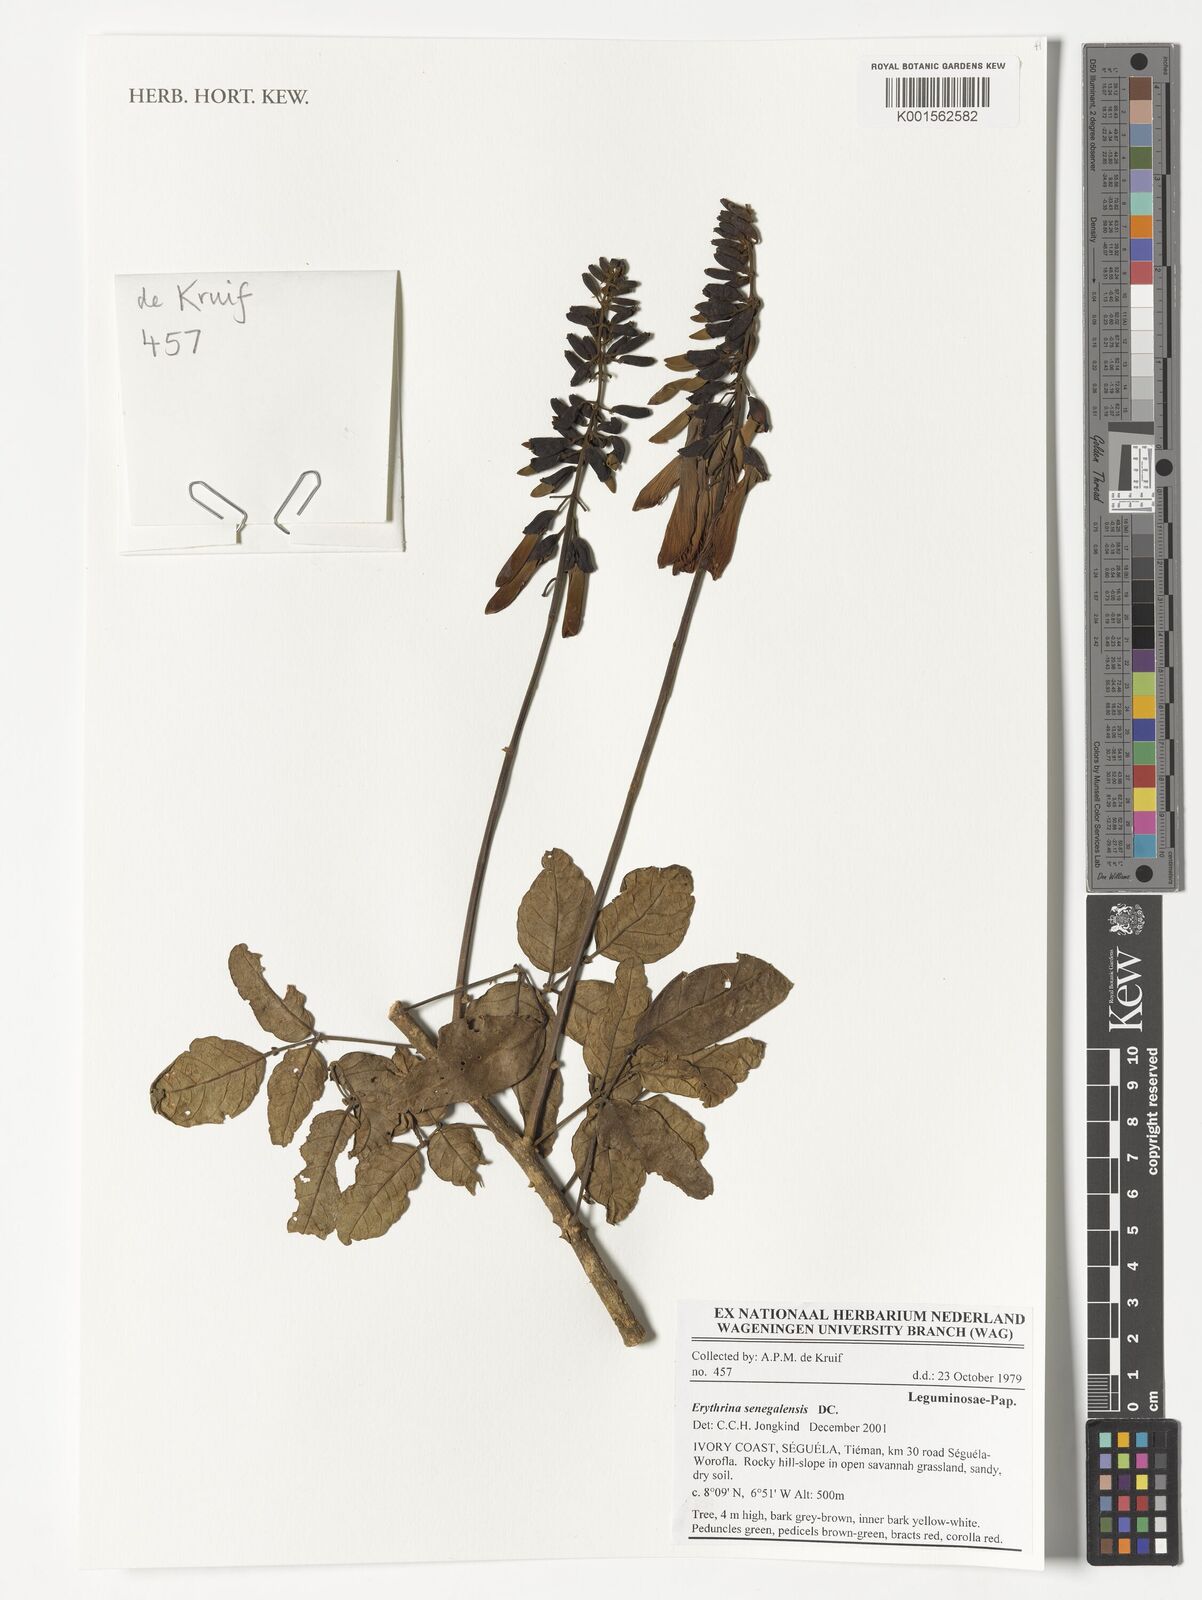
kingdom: Plantae
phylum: Tracheophyta
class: Magnoliopsida
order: Fabales
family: Fabaceae
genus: Erythrina
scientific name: Erythrina senegalensis
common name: Senegal coraltree
